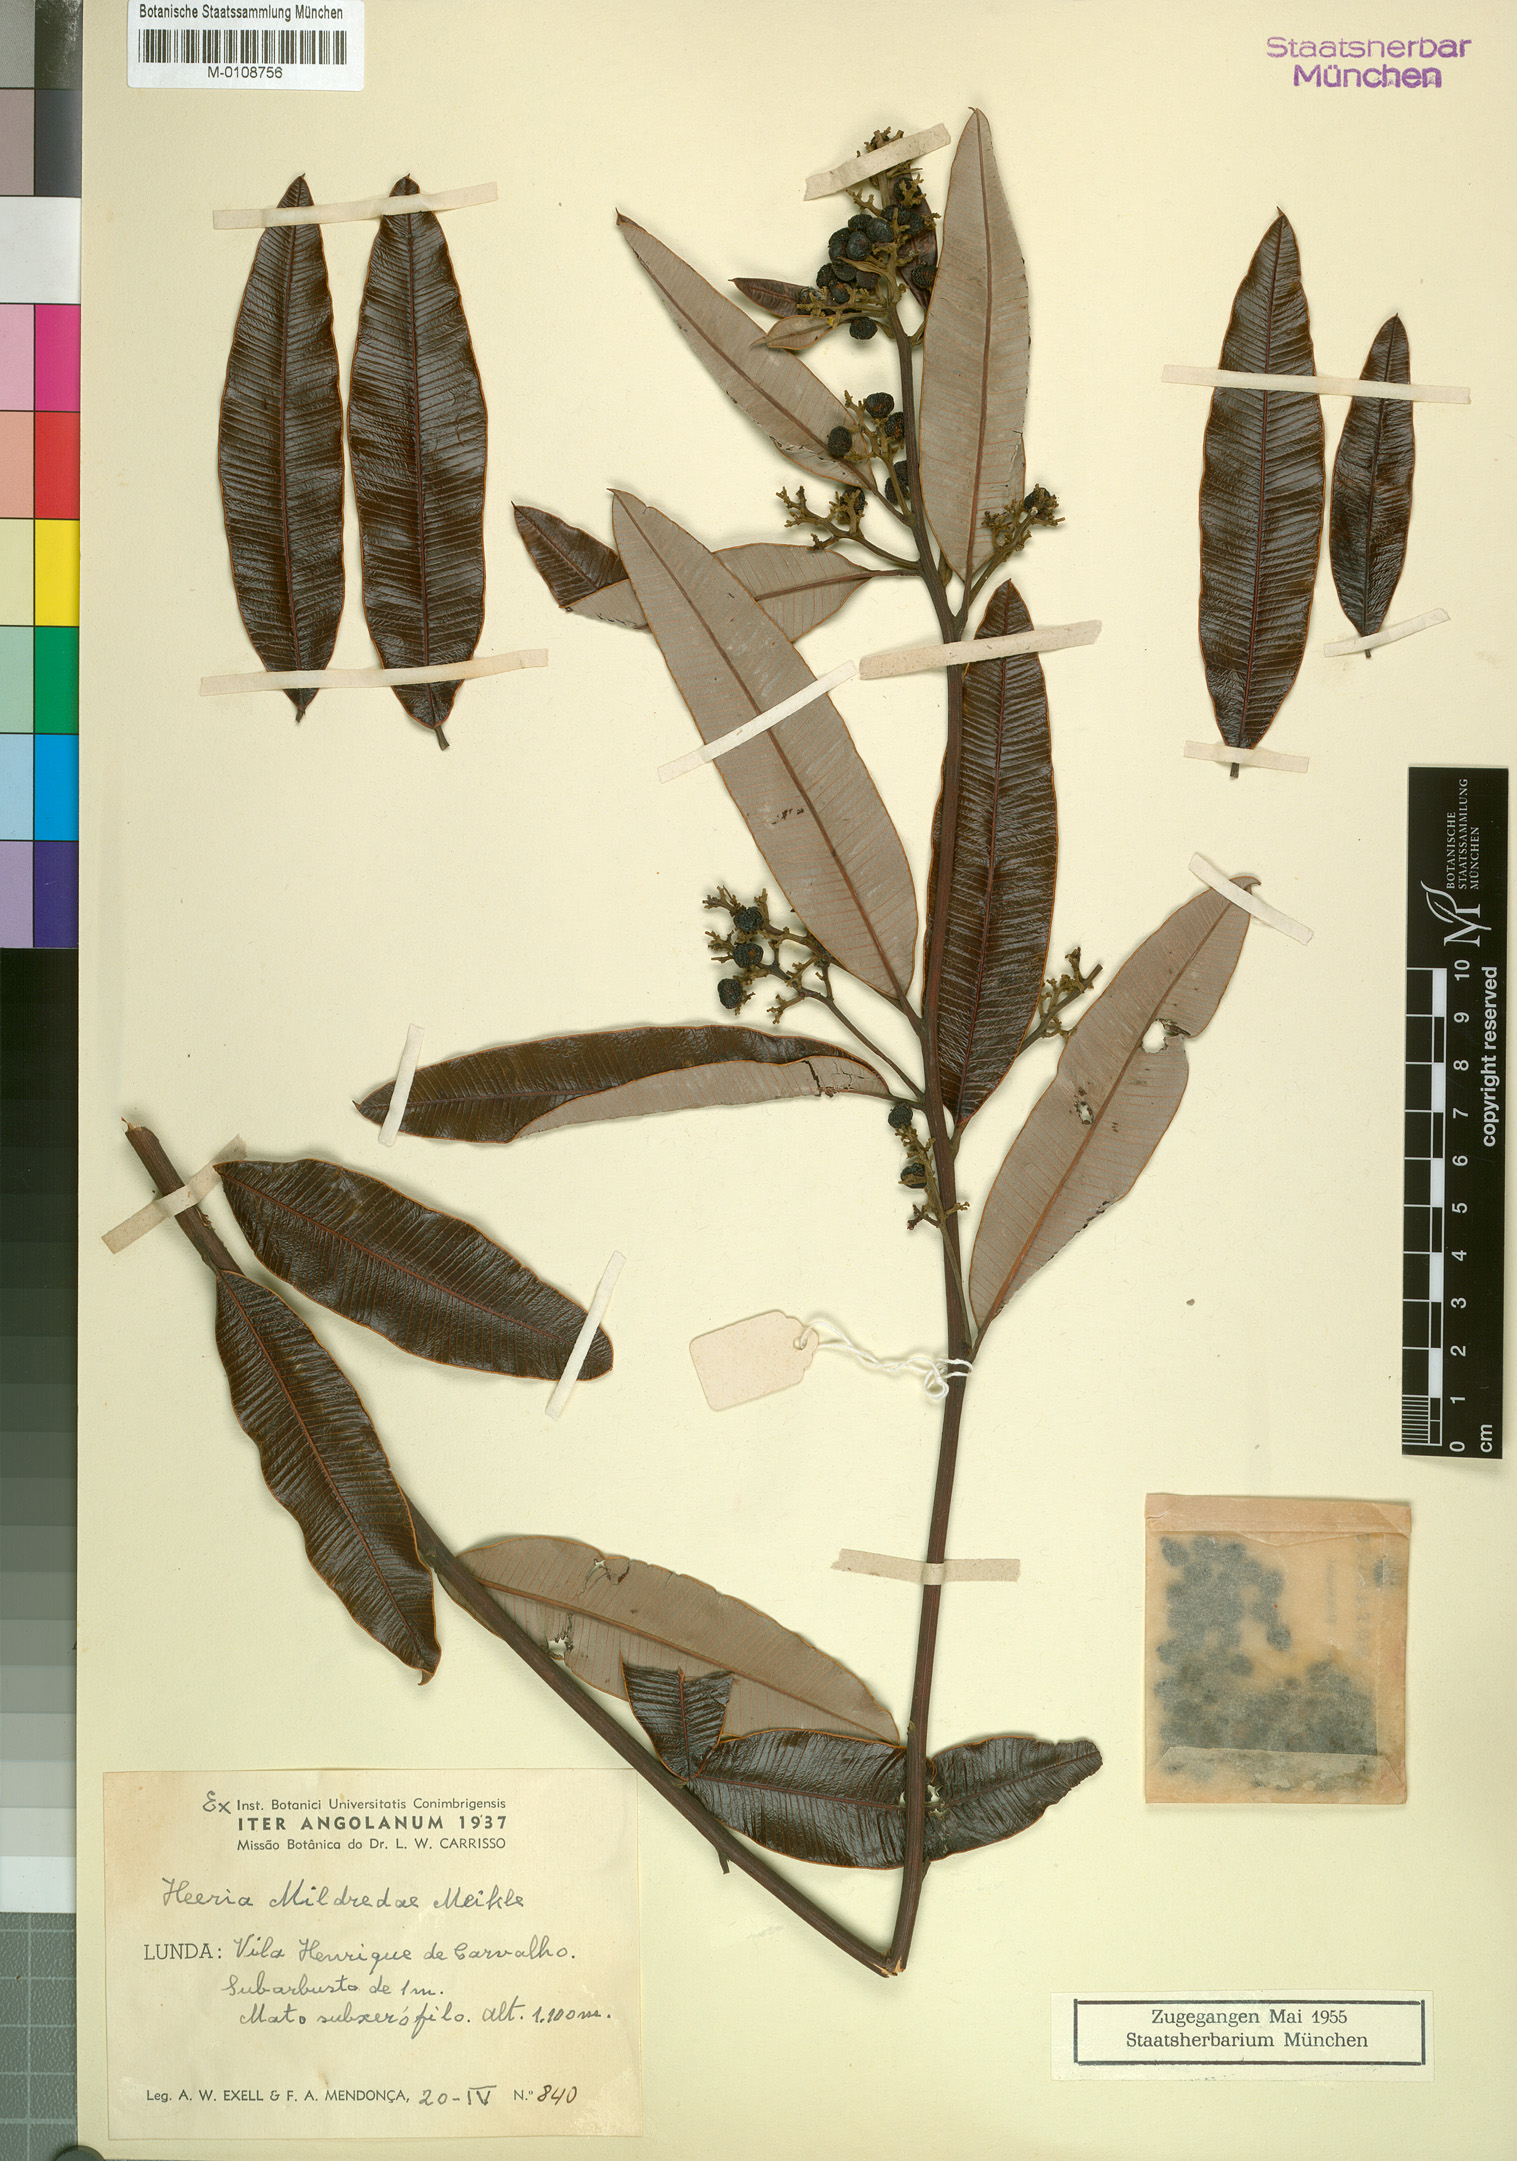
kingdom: Plantae
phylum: Tracheophyta
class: Magnoliopsida
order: Sapindales
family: Anacardiaceae
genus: Ozoroa
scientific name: Ozoroa mildredae
